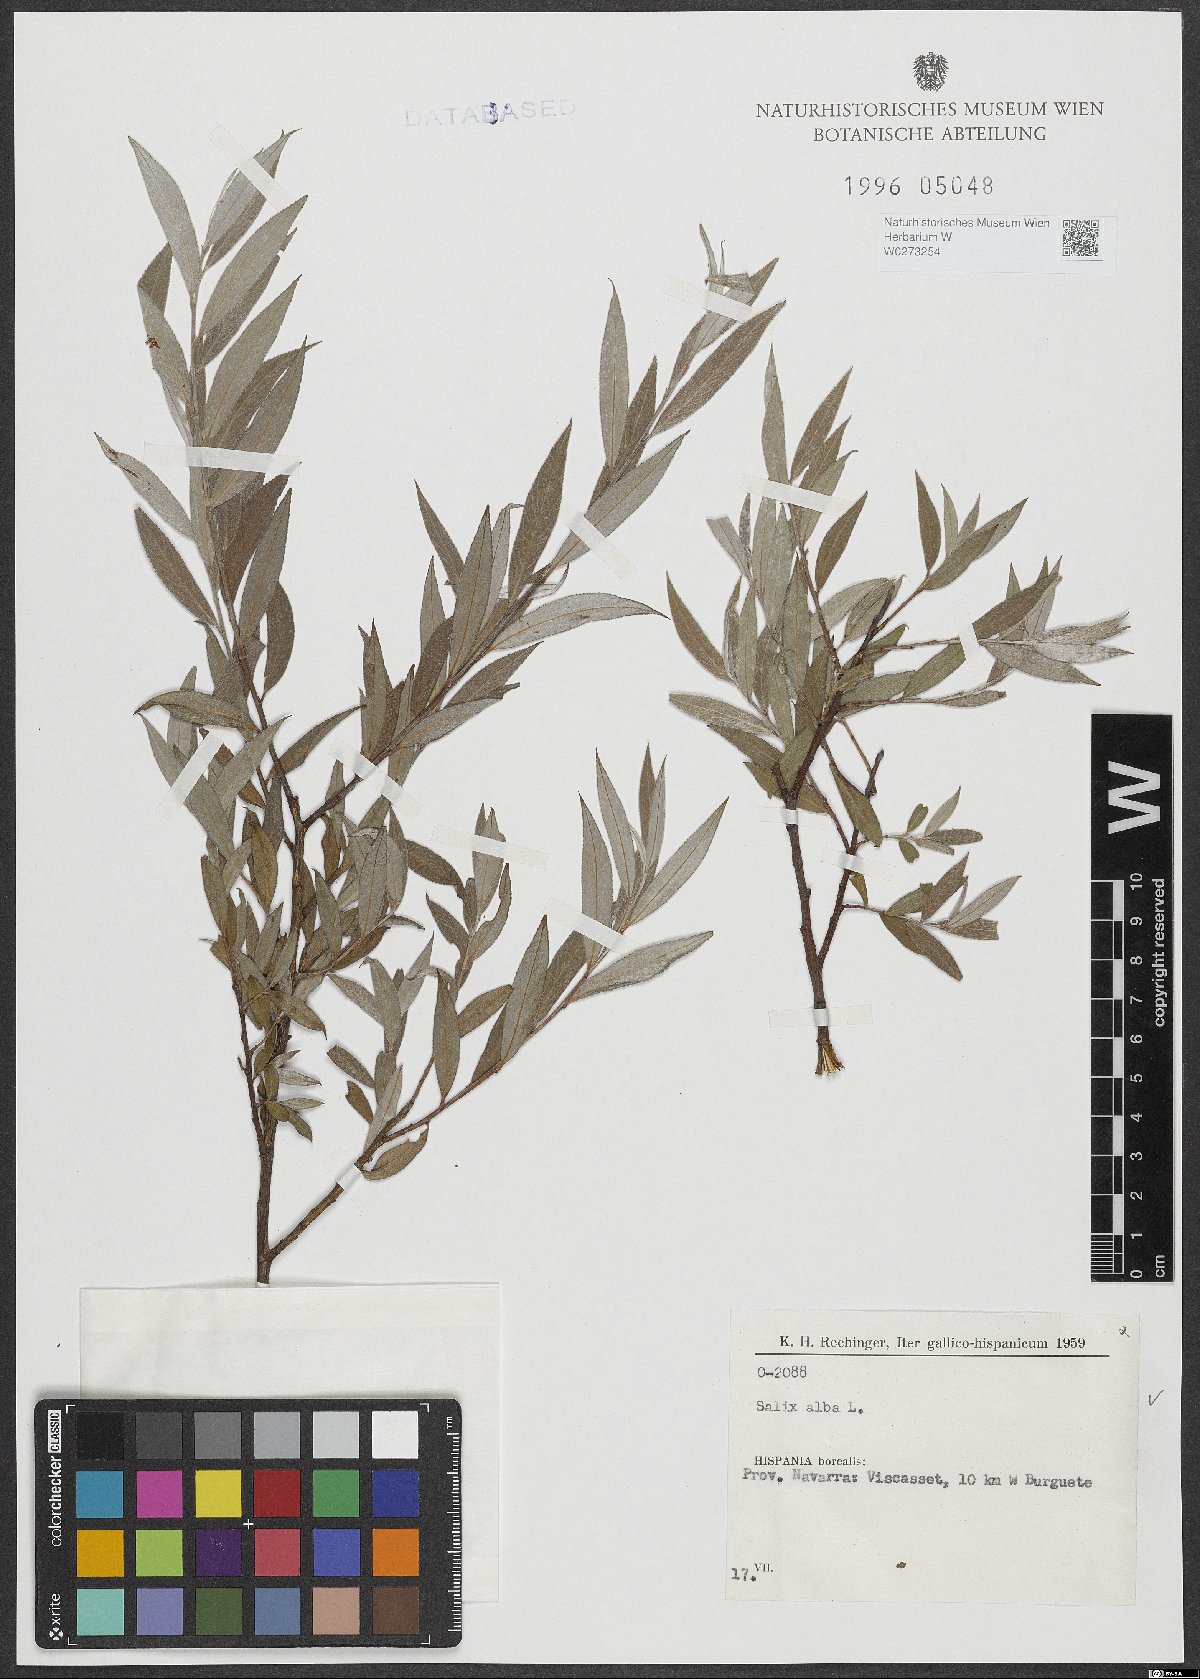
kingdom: Plantae
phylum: Tracheophyta
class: Magnoliopsida
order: Malpighiales
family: Salicaceae
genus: Salix
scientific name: Salix alba
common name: White willow
